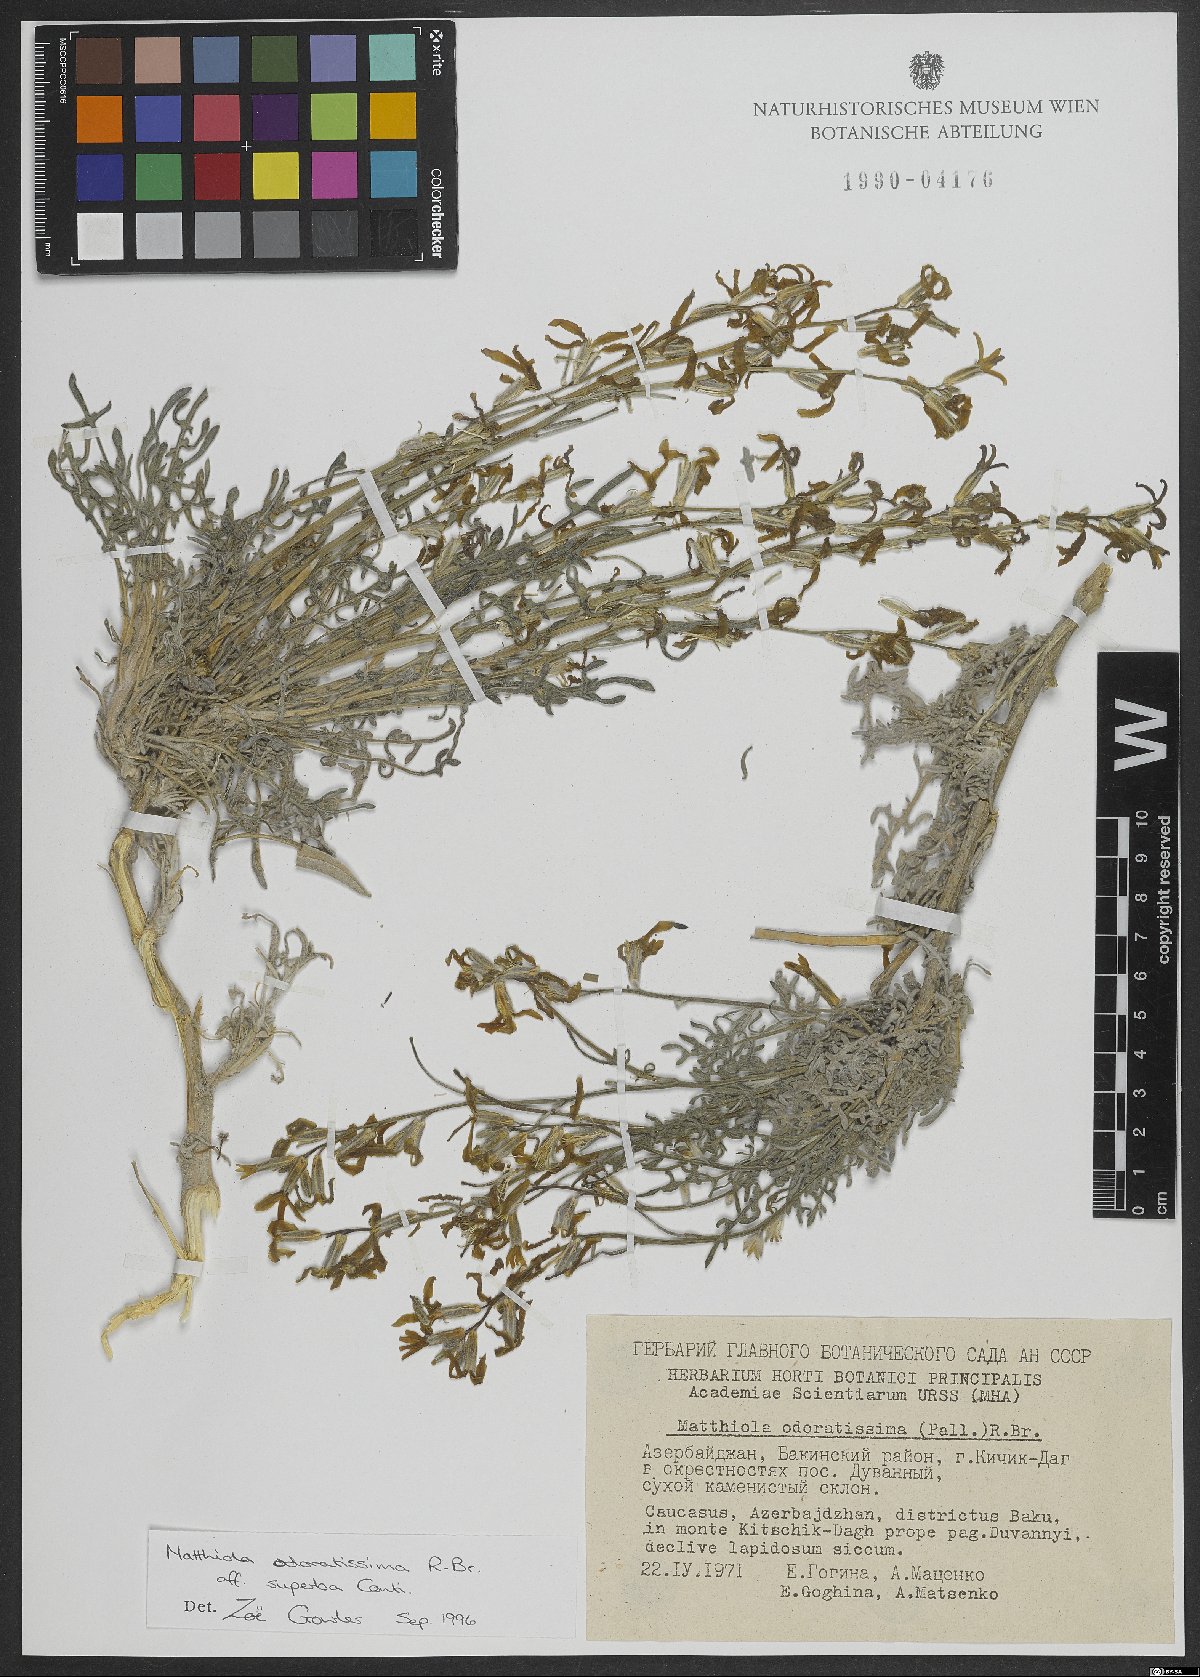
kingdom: Plantae
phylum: Tracheophyta
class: Magnoliopsida
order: Brassicales
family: Brassicaceae
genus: Matthiola
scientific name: Matthiola odoratissima
